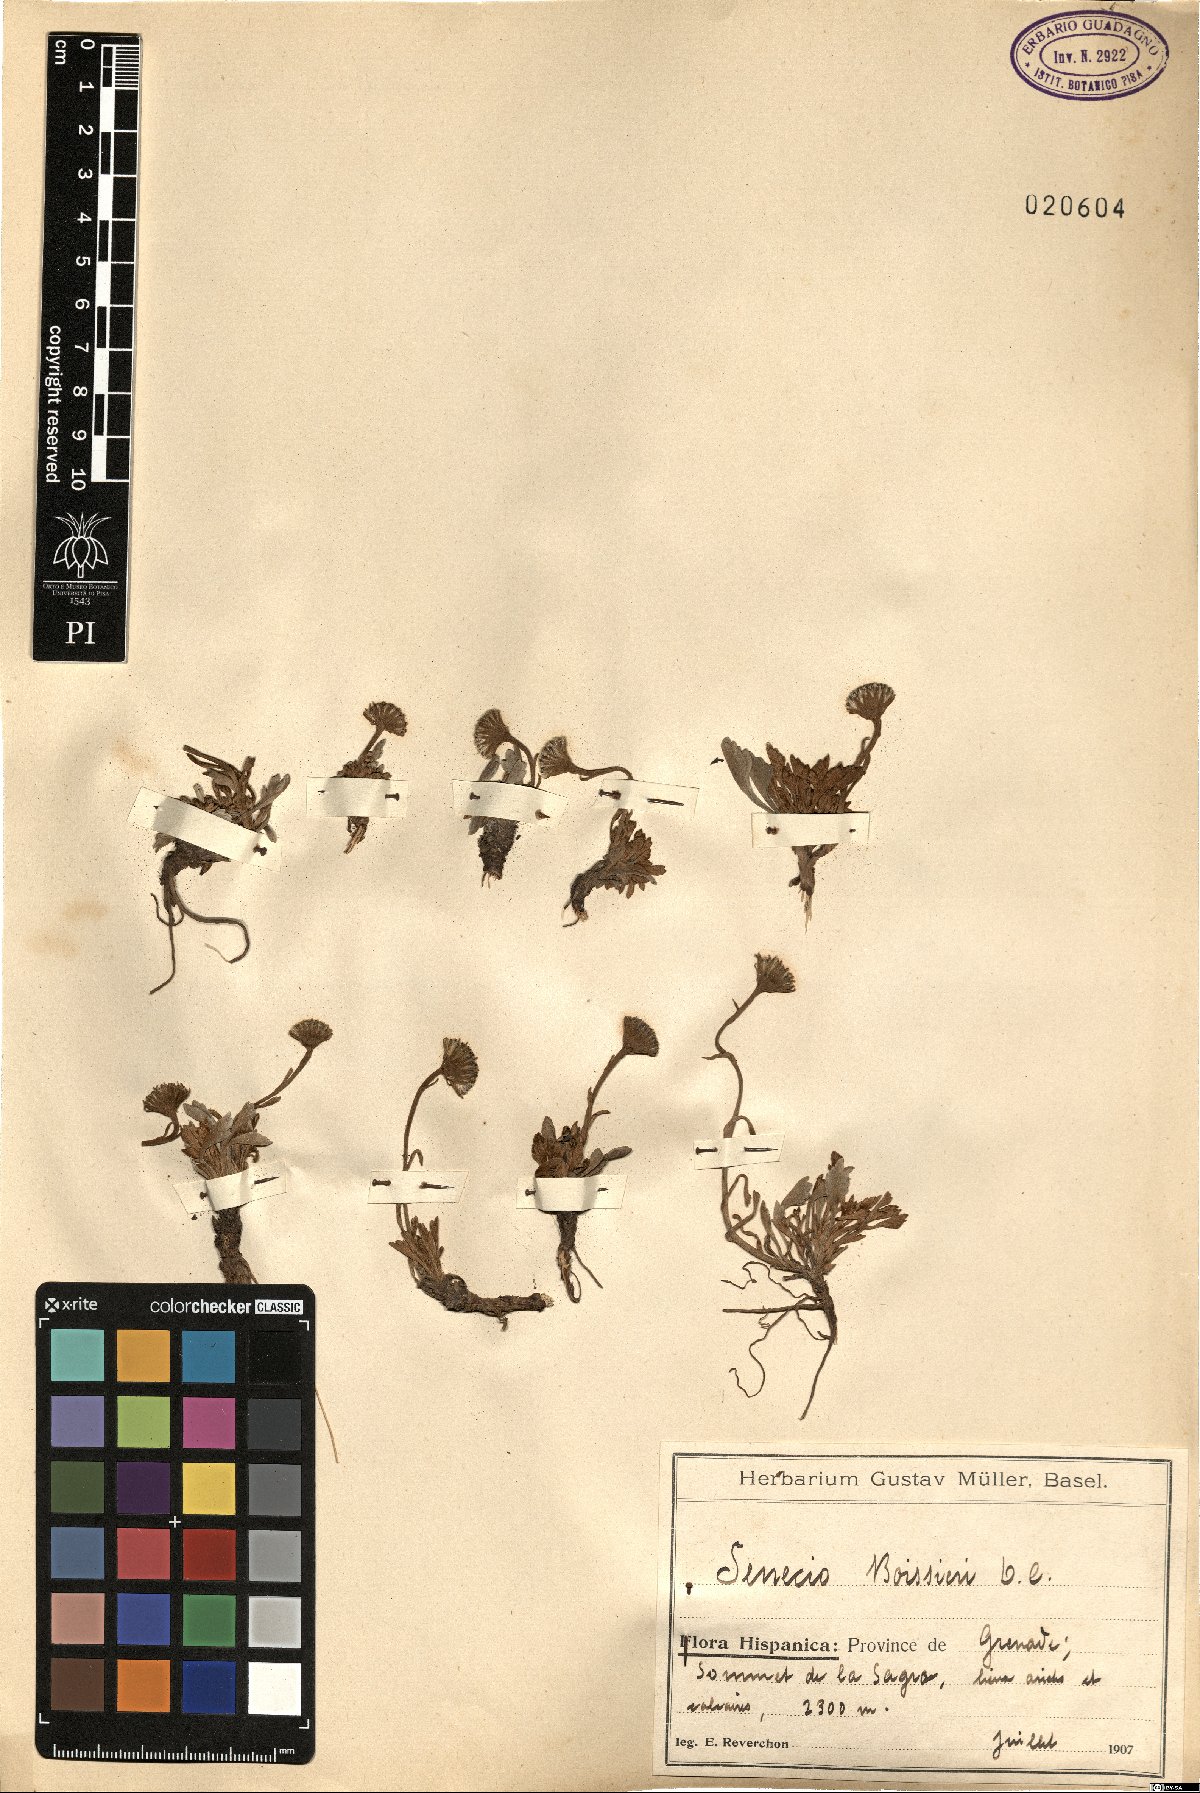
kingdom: Plantae
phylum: Tracheophyta
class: Magnoliopsida
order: Asterales
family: Asteraceae
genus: Jacobaea
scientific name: Jacobaea boissieri
